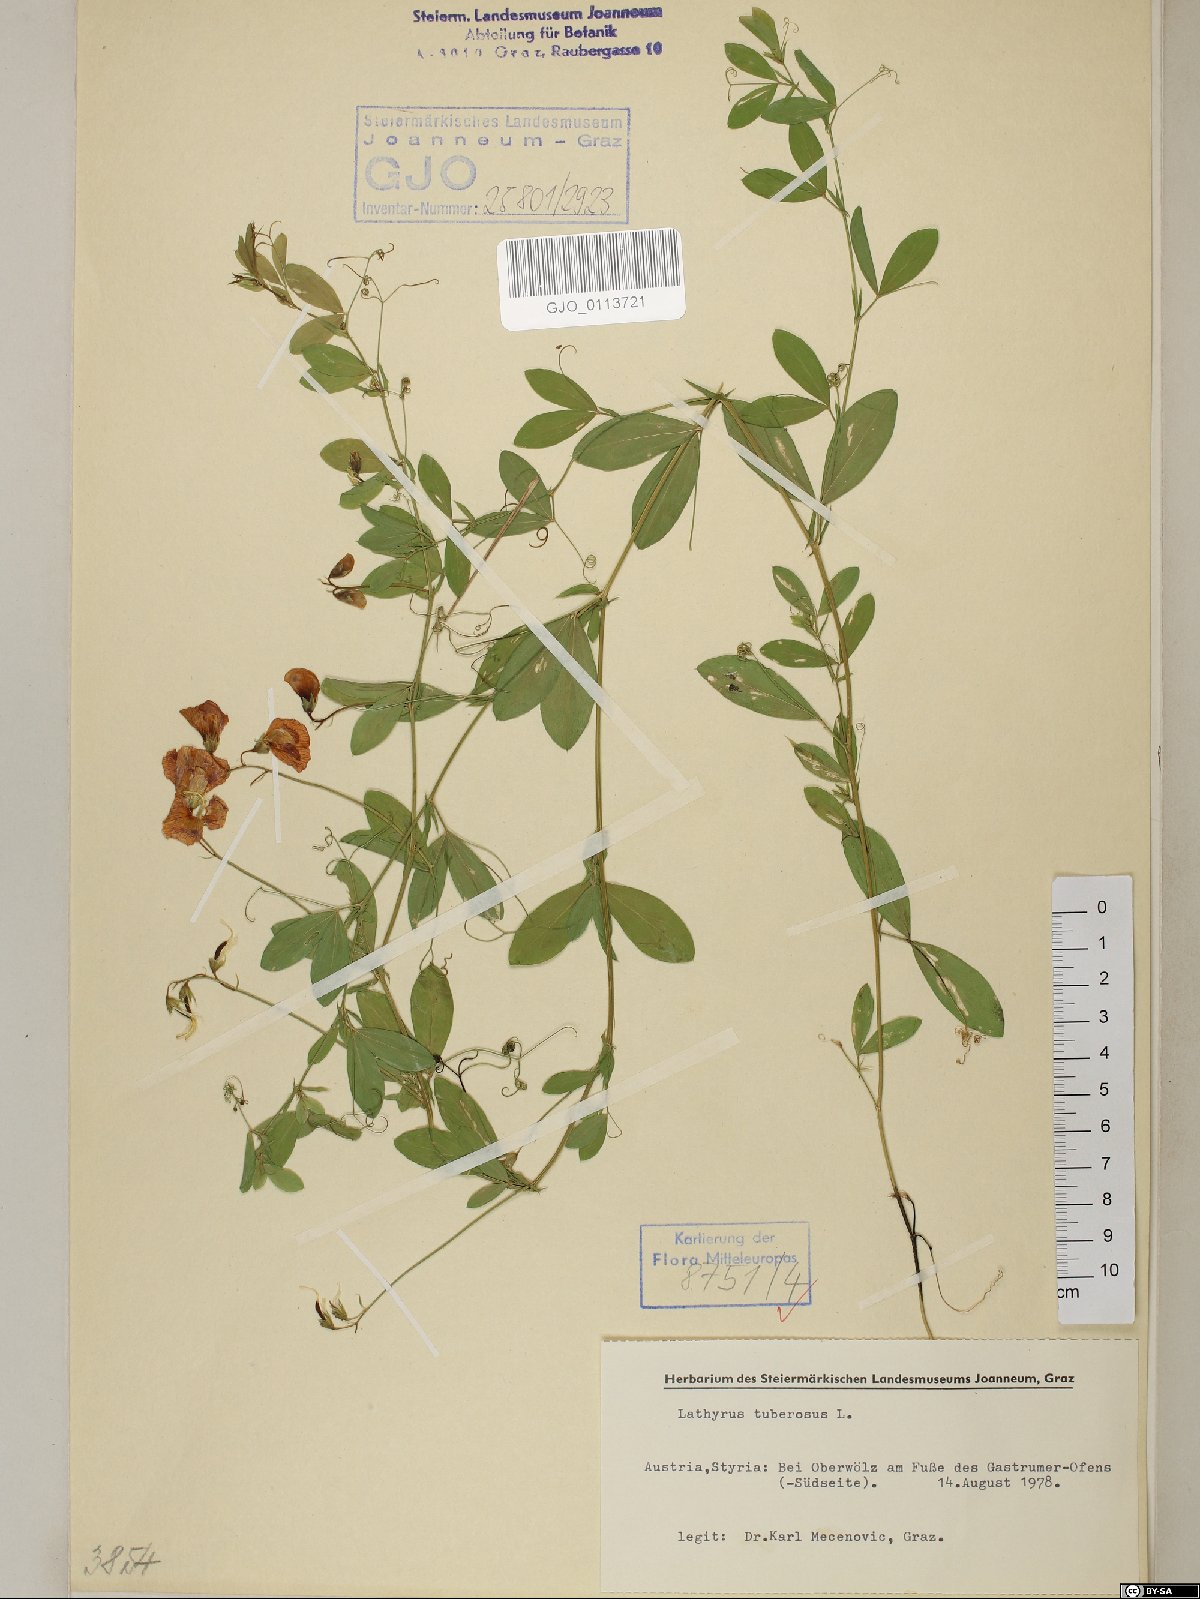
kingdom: Plantae
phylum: Tracheophyta
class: Magnoliopsida
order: Fabales
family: Fabaceae
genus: Lathyrus
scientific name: Lathyrus tuberosus
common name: Tuberous pea
